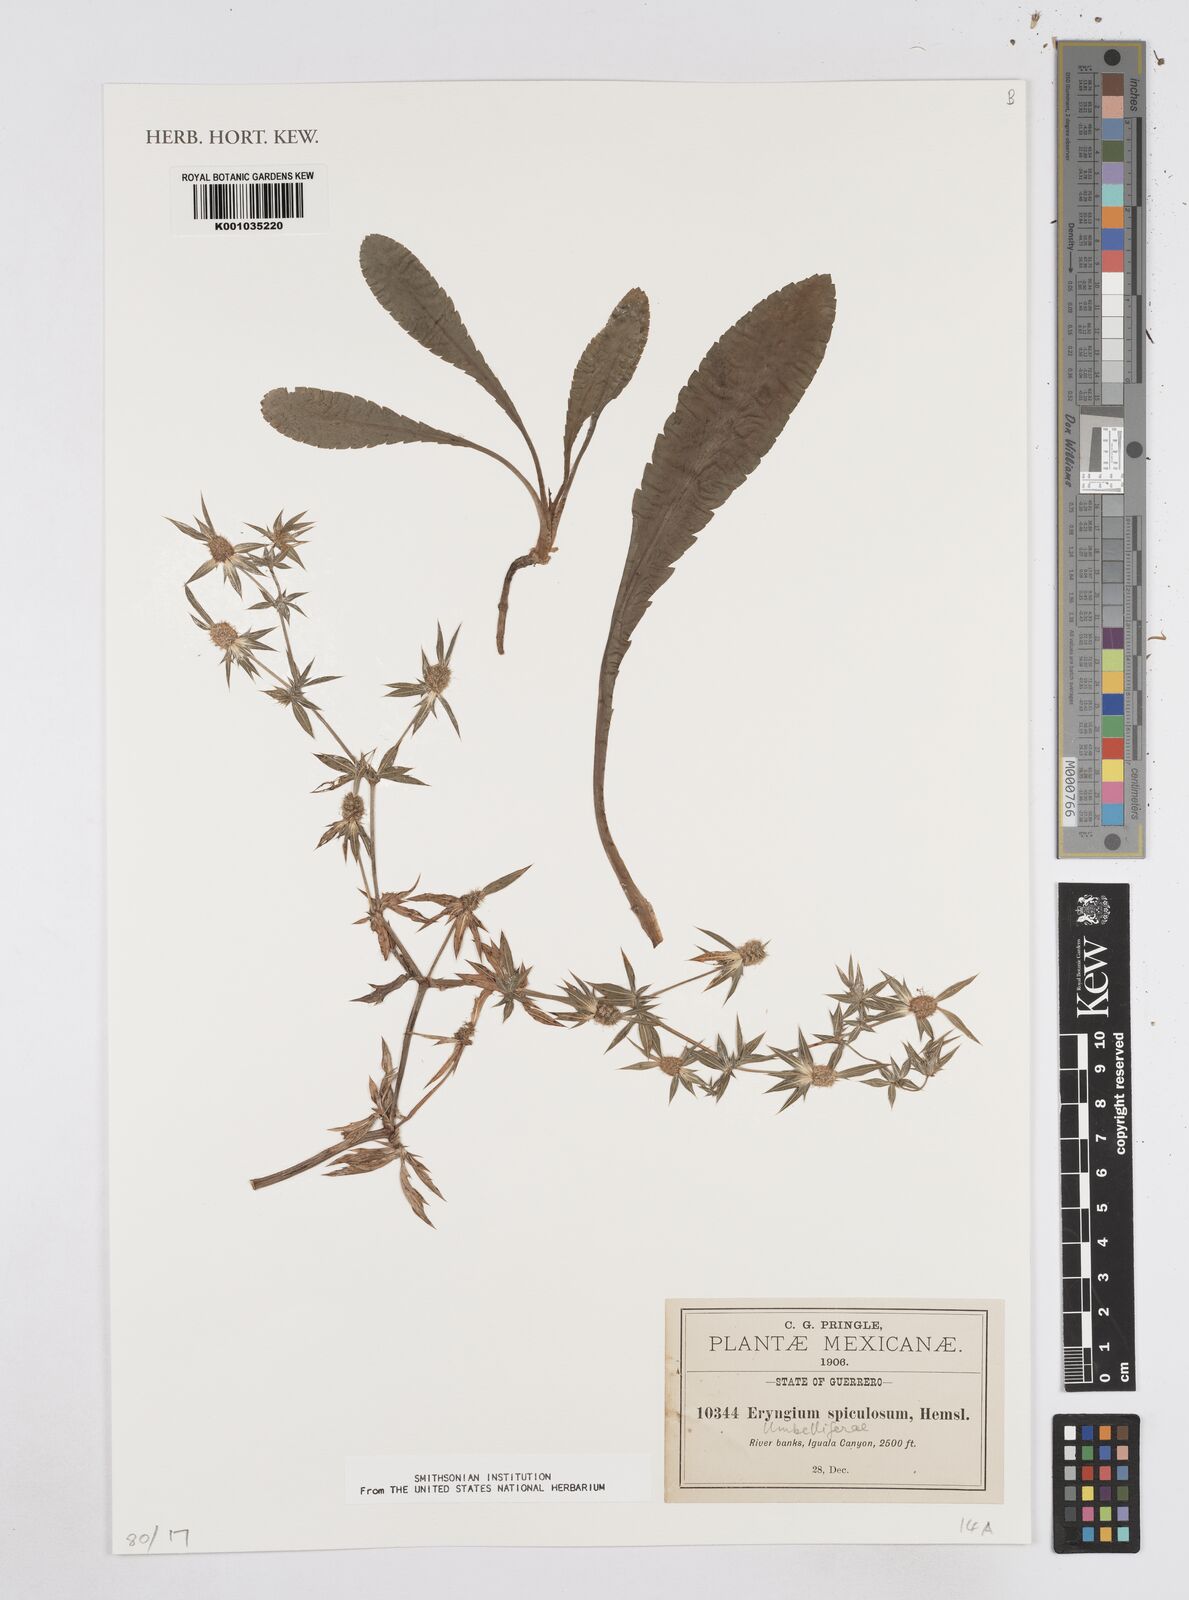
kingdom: Plantae
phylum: Tracheophyta
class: Magnoliopsida
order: Apiales
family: Apiaceae
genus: Eryngium
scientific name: Eryngium haenkei
